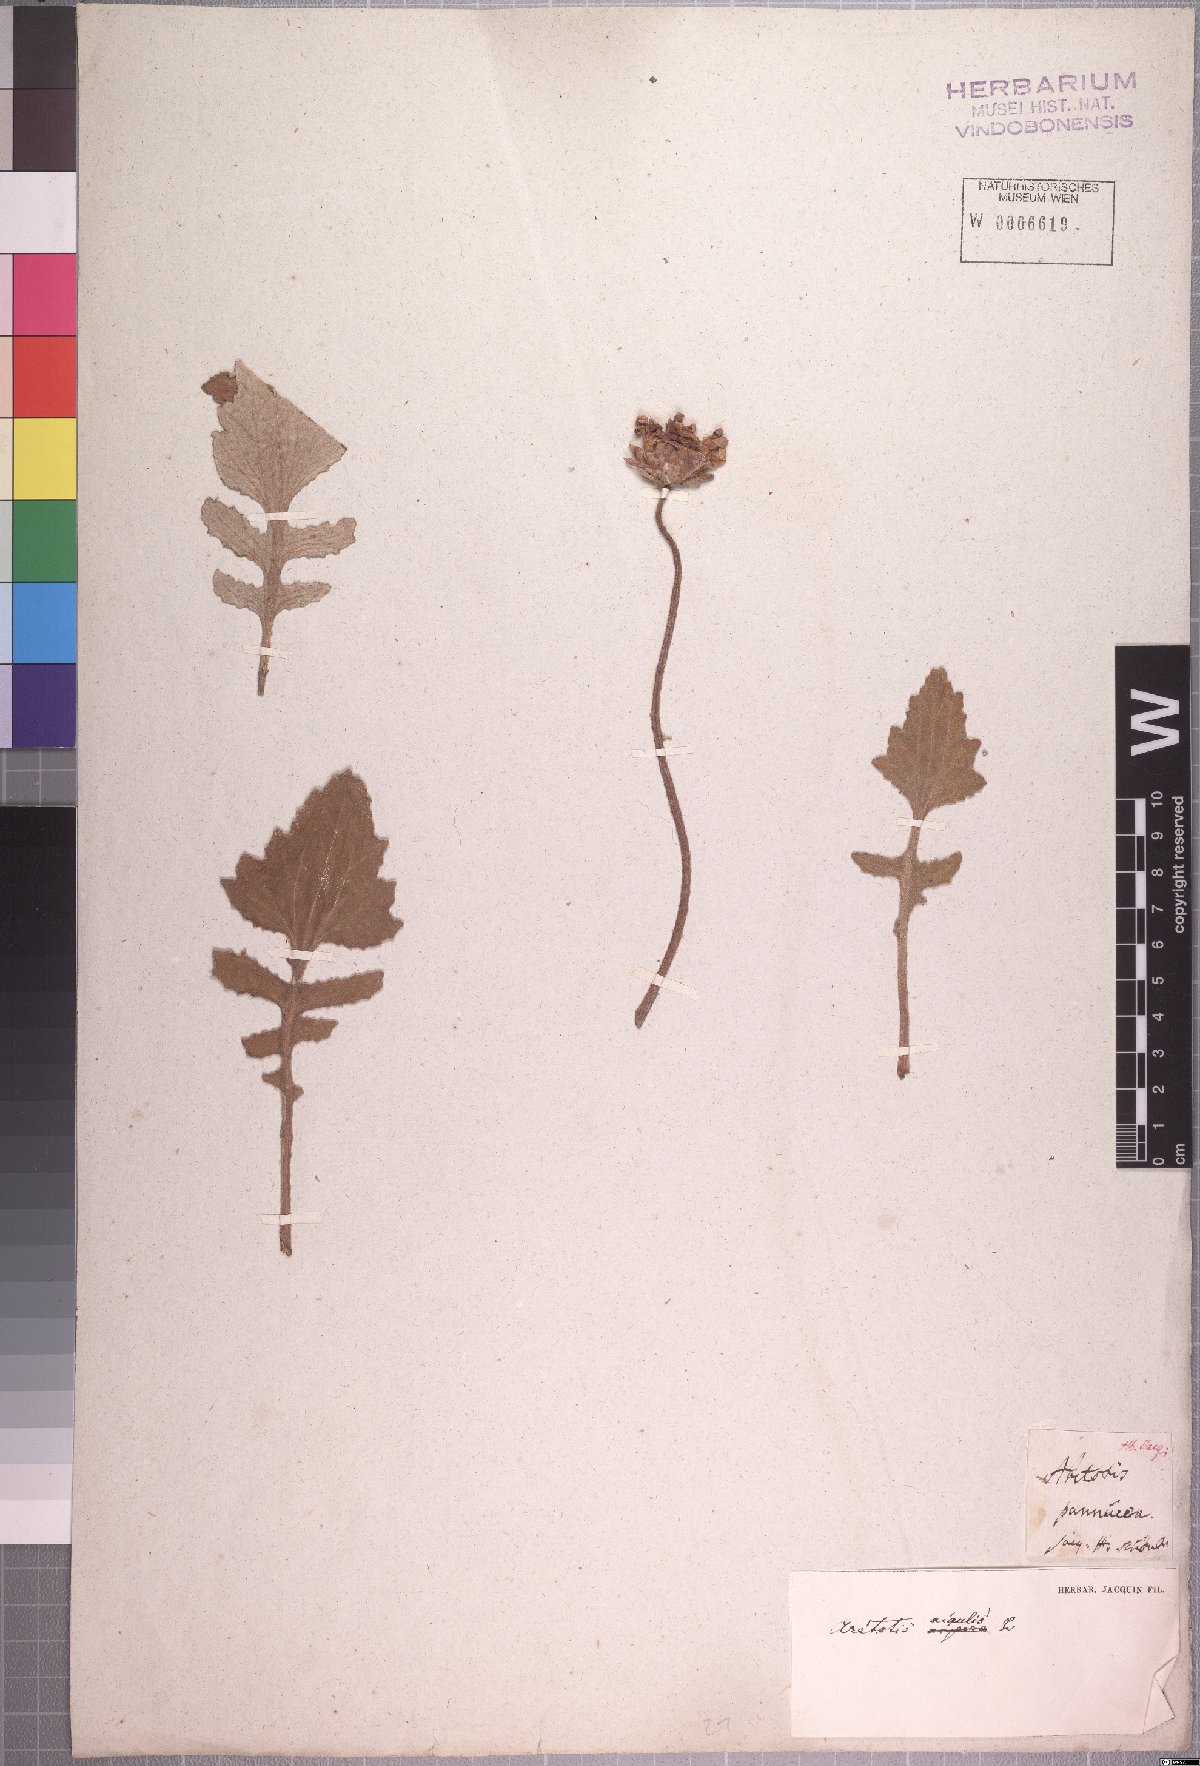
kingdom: Plantae
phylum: Tracheophyta
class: Magnoliopsida
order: Asterales
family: Asteraceae
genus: Arctotis
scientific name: Arctotis acaulis
